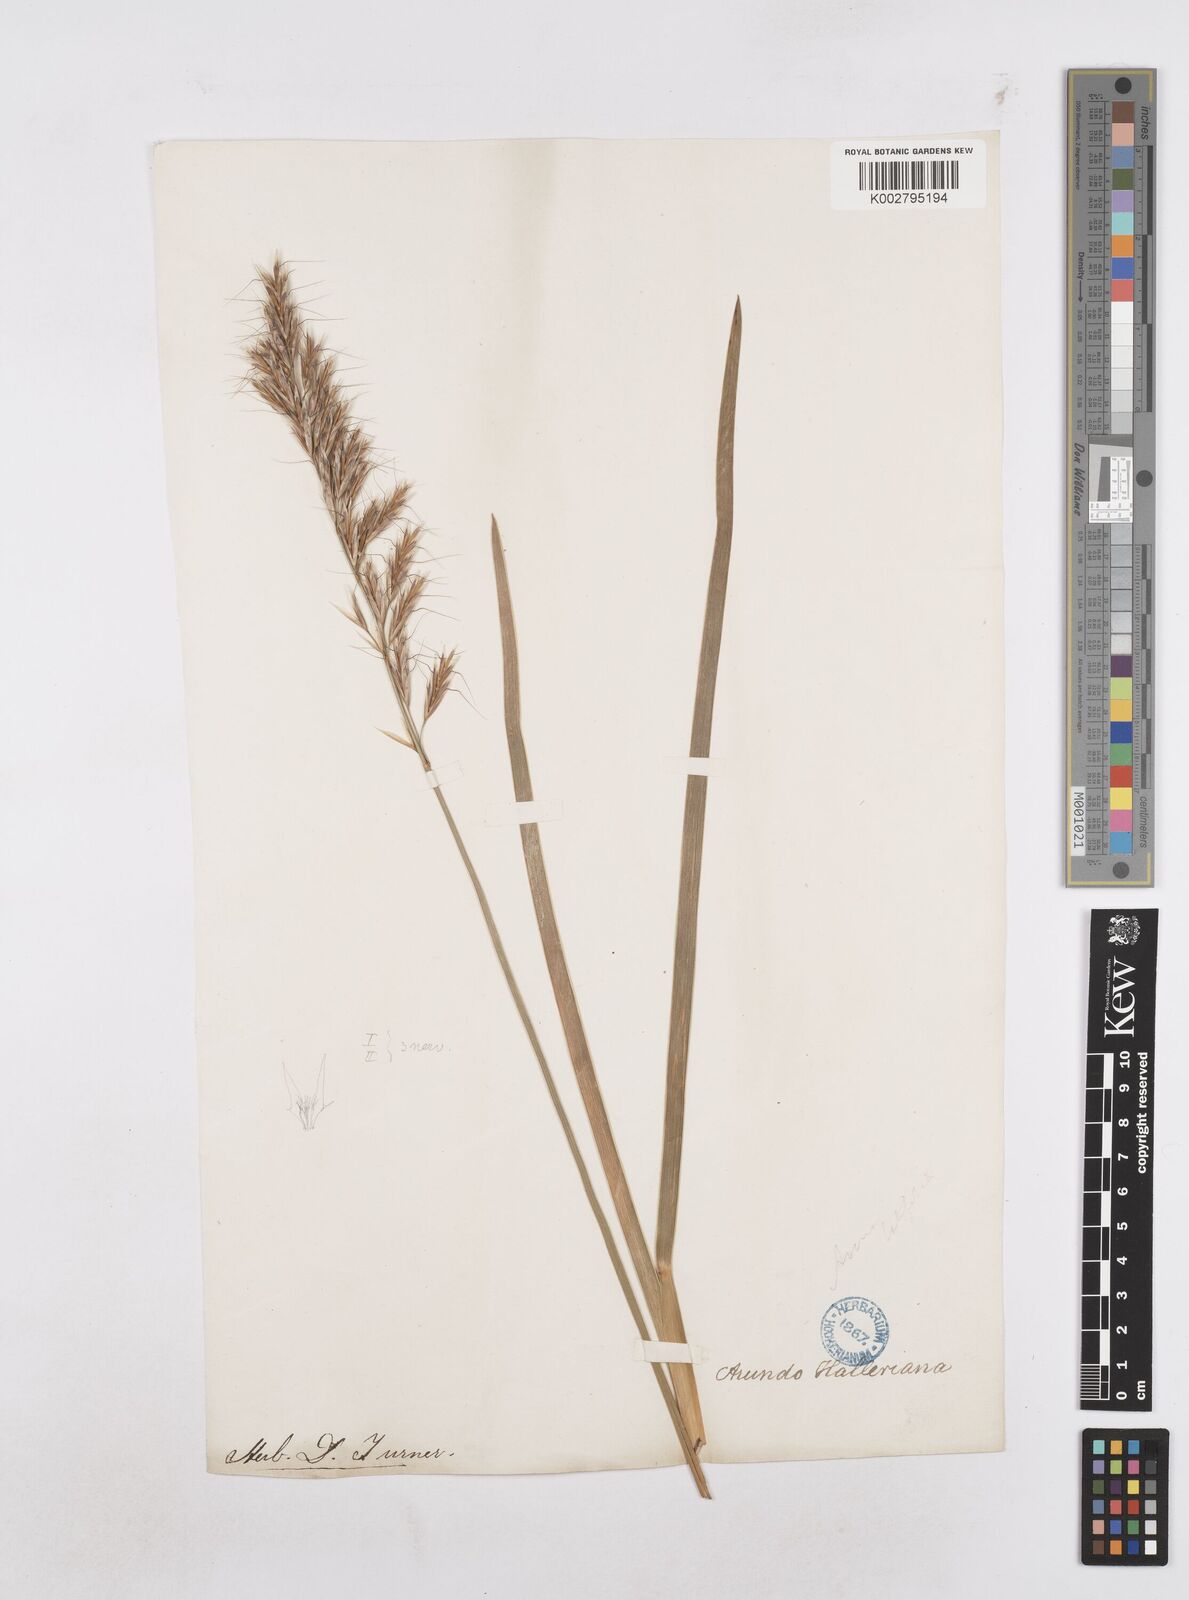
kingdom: Plantae
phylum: Tracheophyta
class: Liliopsida
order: Poales
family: Poaceae
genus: Helictochloa
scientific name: Helictochloa planiculmis
